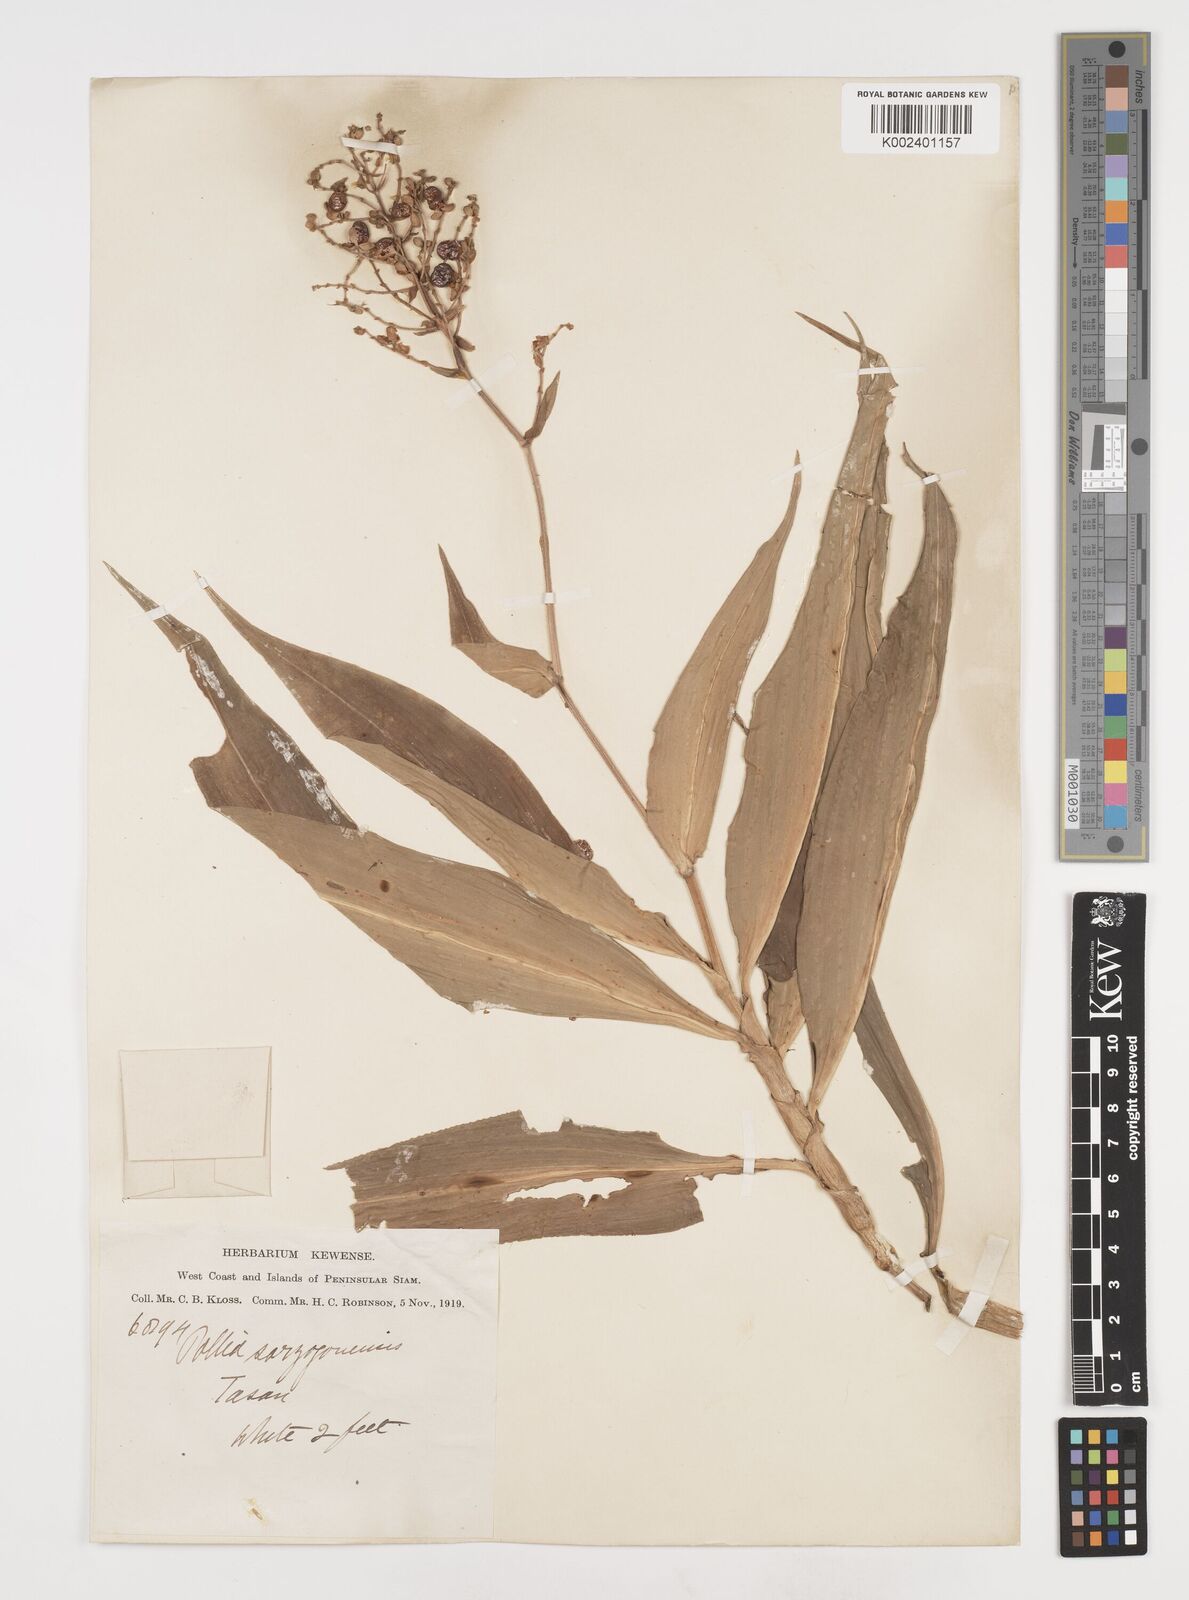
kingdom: Plantae
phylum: Tracheophyta
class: Liliopsida
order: Commelinales
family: Commelinaceae
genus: Pollia
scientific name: Pollia secundiflora
